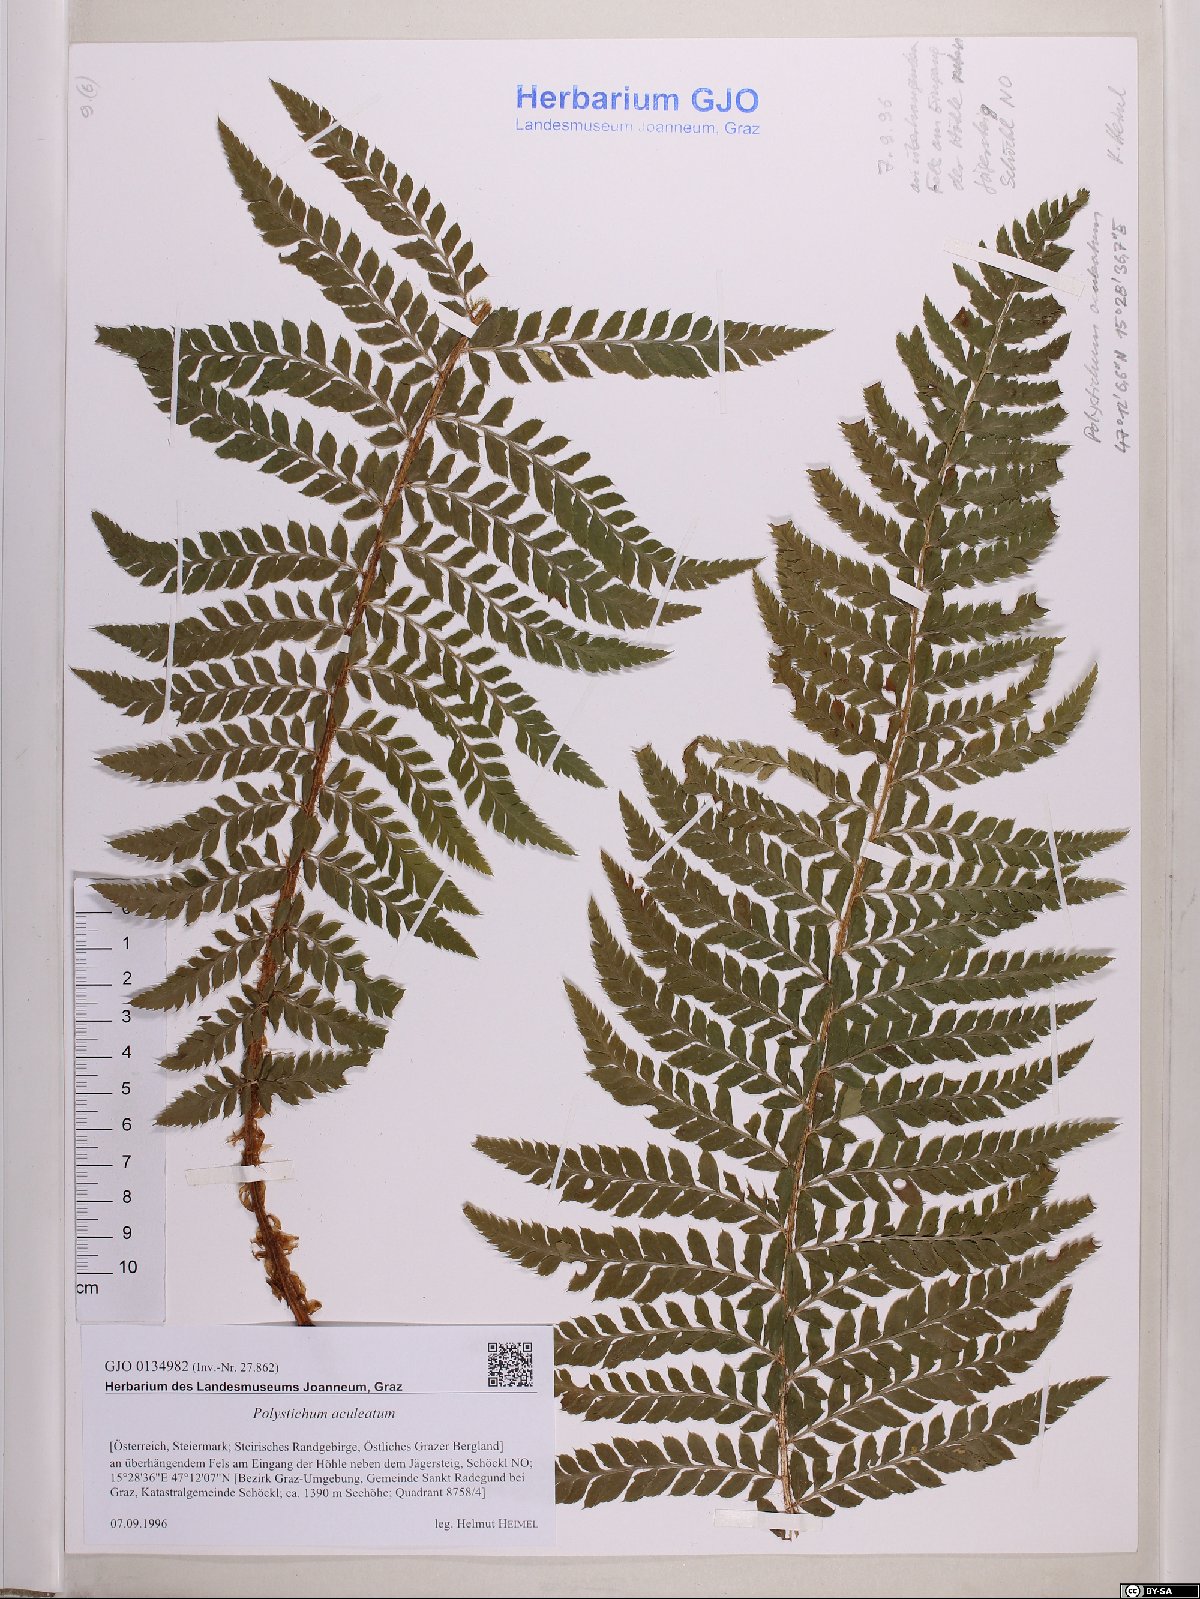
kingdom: Plantae
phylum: Tracheophyta
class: Polypodiopsida
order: Polypodiales
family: Dryopteridaceae
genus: Polystichum
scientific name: Polystichum aculeatum
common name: Hard shield-fern
